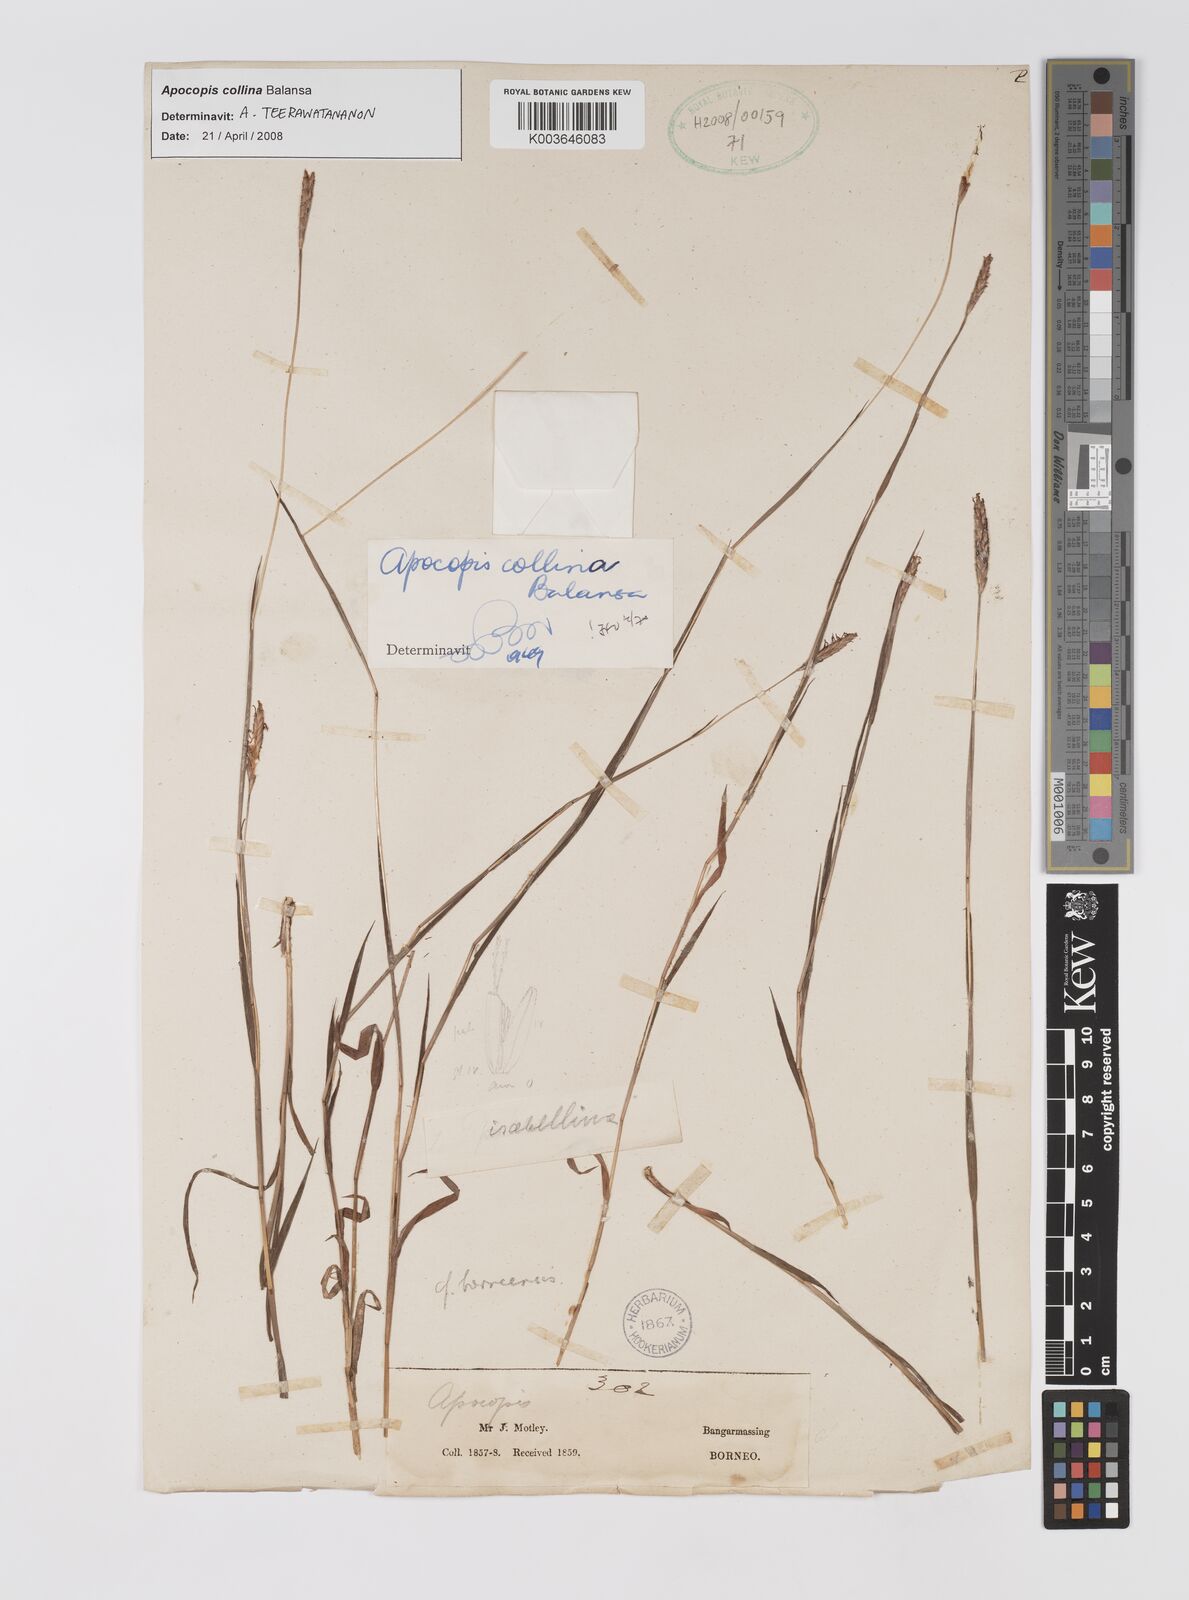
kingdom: Plantae
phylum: Tracheophyta
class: Liliopsida
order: Poales
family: Poaceae
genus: Apocopis
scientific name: Apocopis collinus
